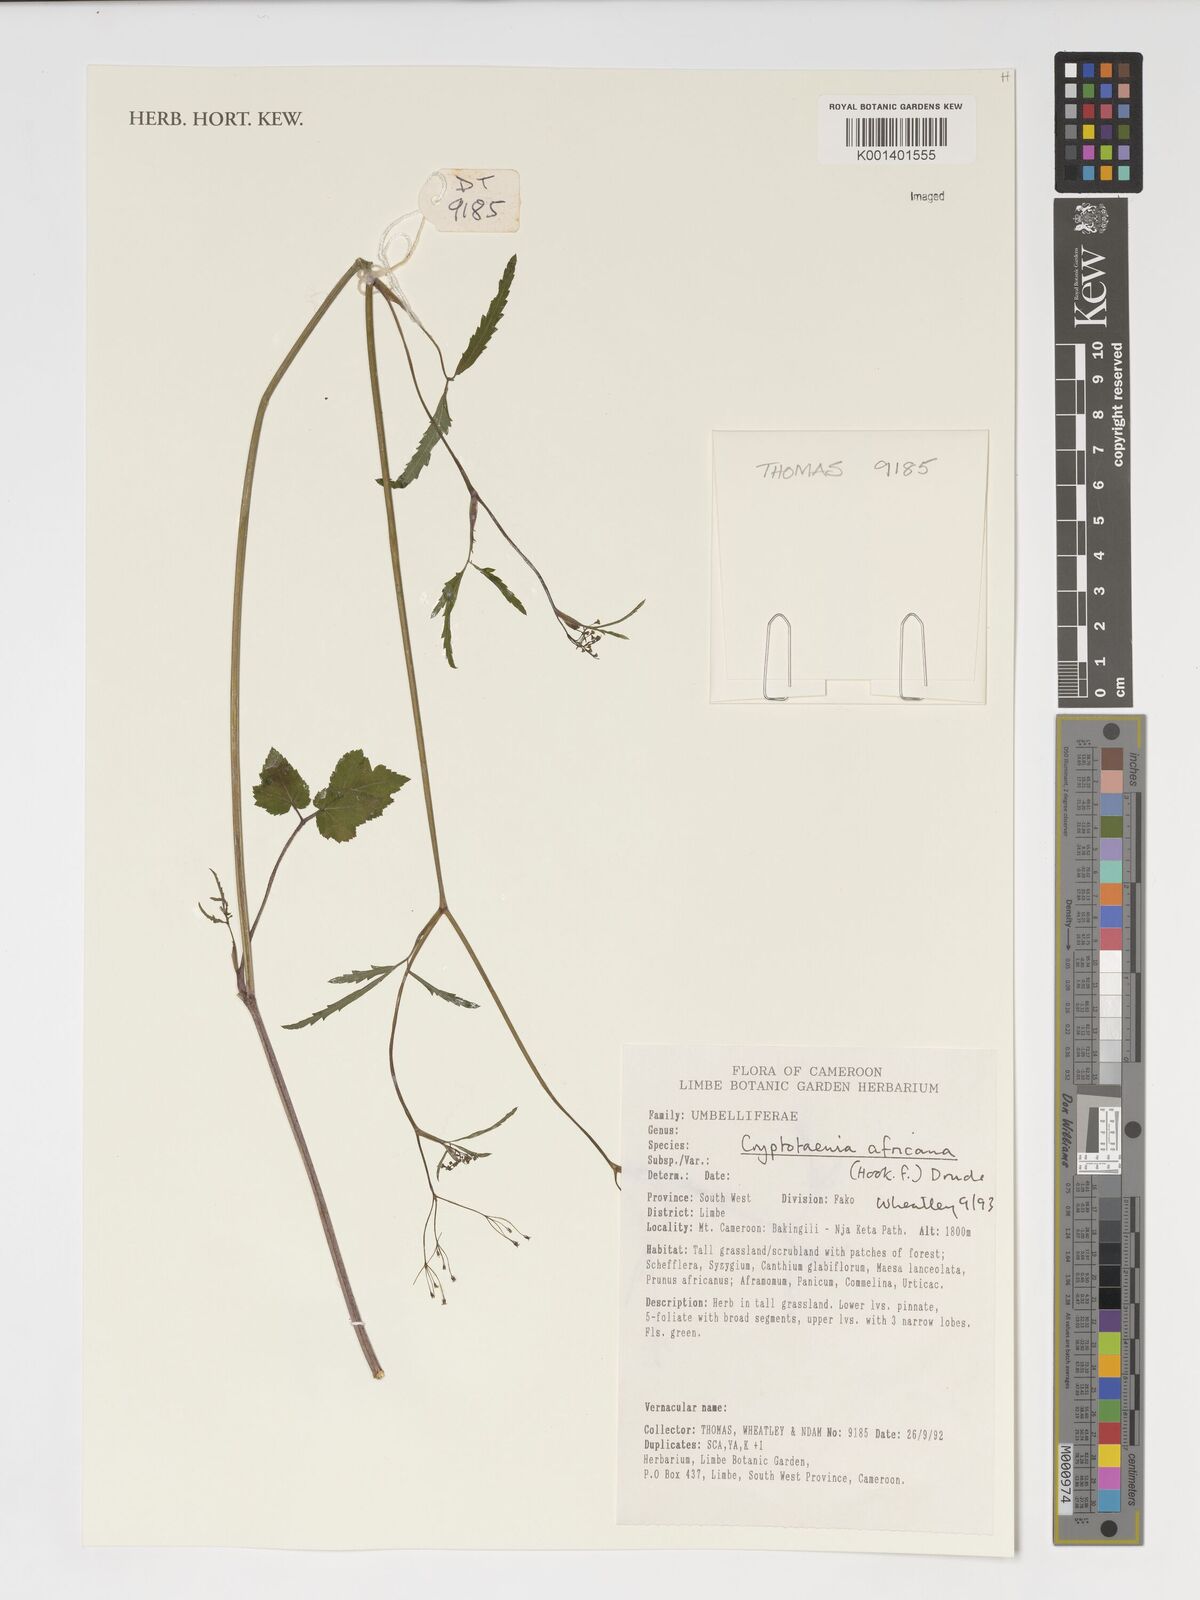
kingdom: Plantae
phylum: Tracheophyta
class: Magnoliopsida
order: Apiales
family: Apiaceae
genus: Cryptotaenia
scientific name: Cryptotaenia africana
